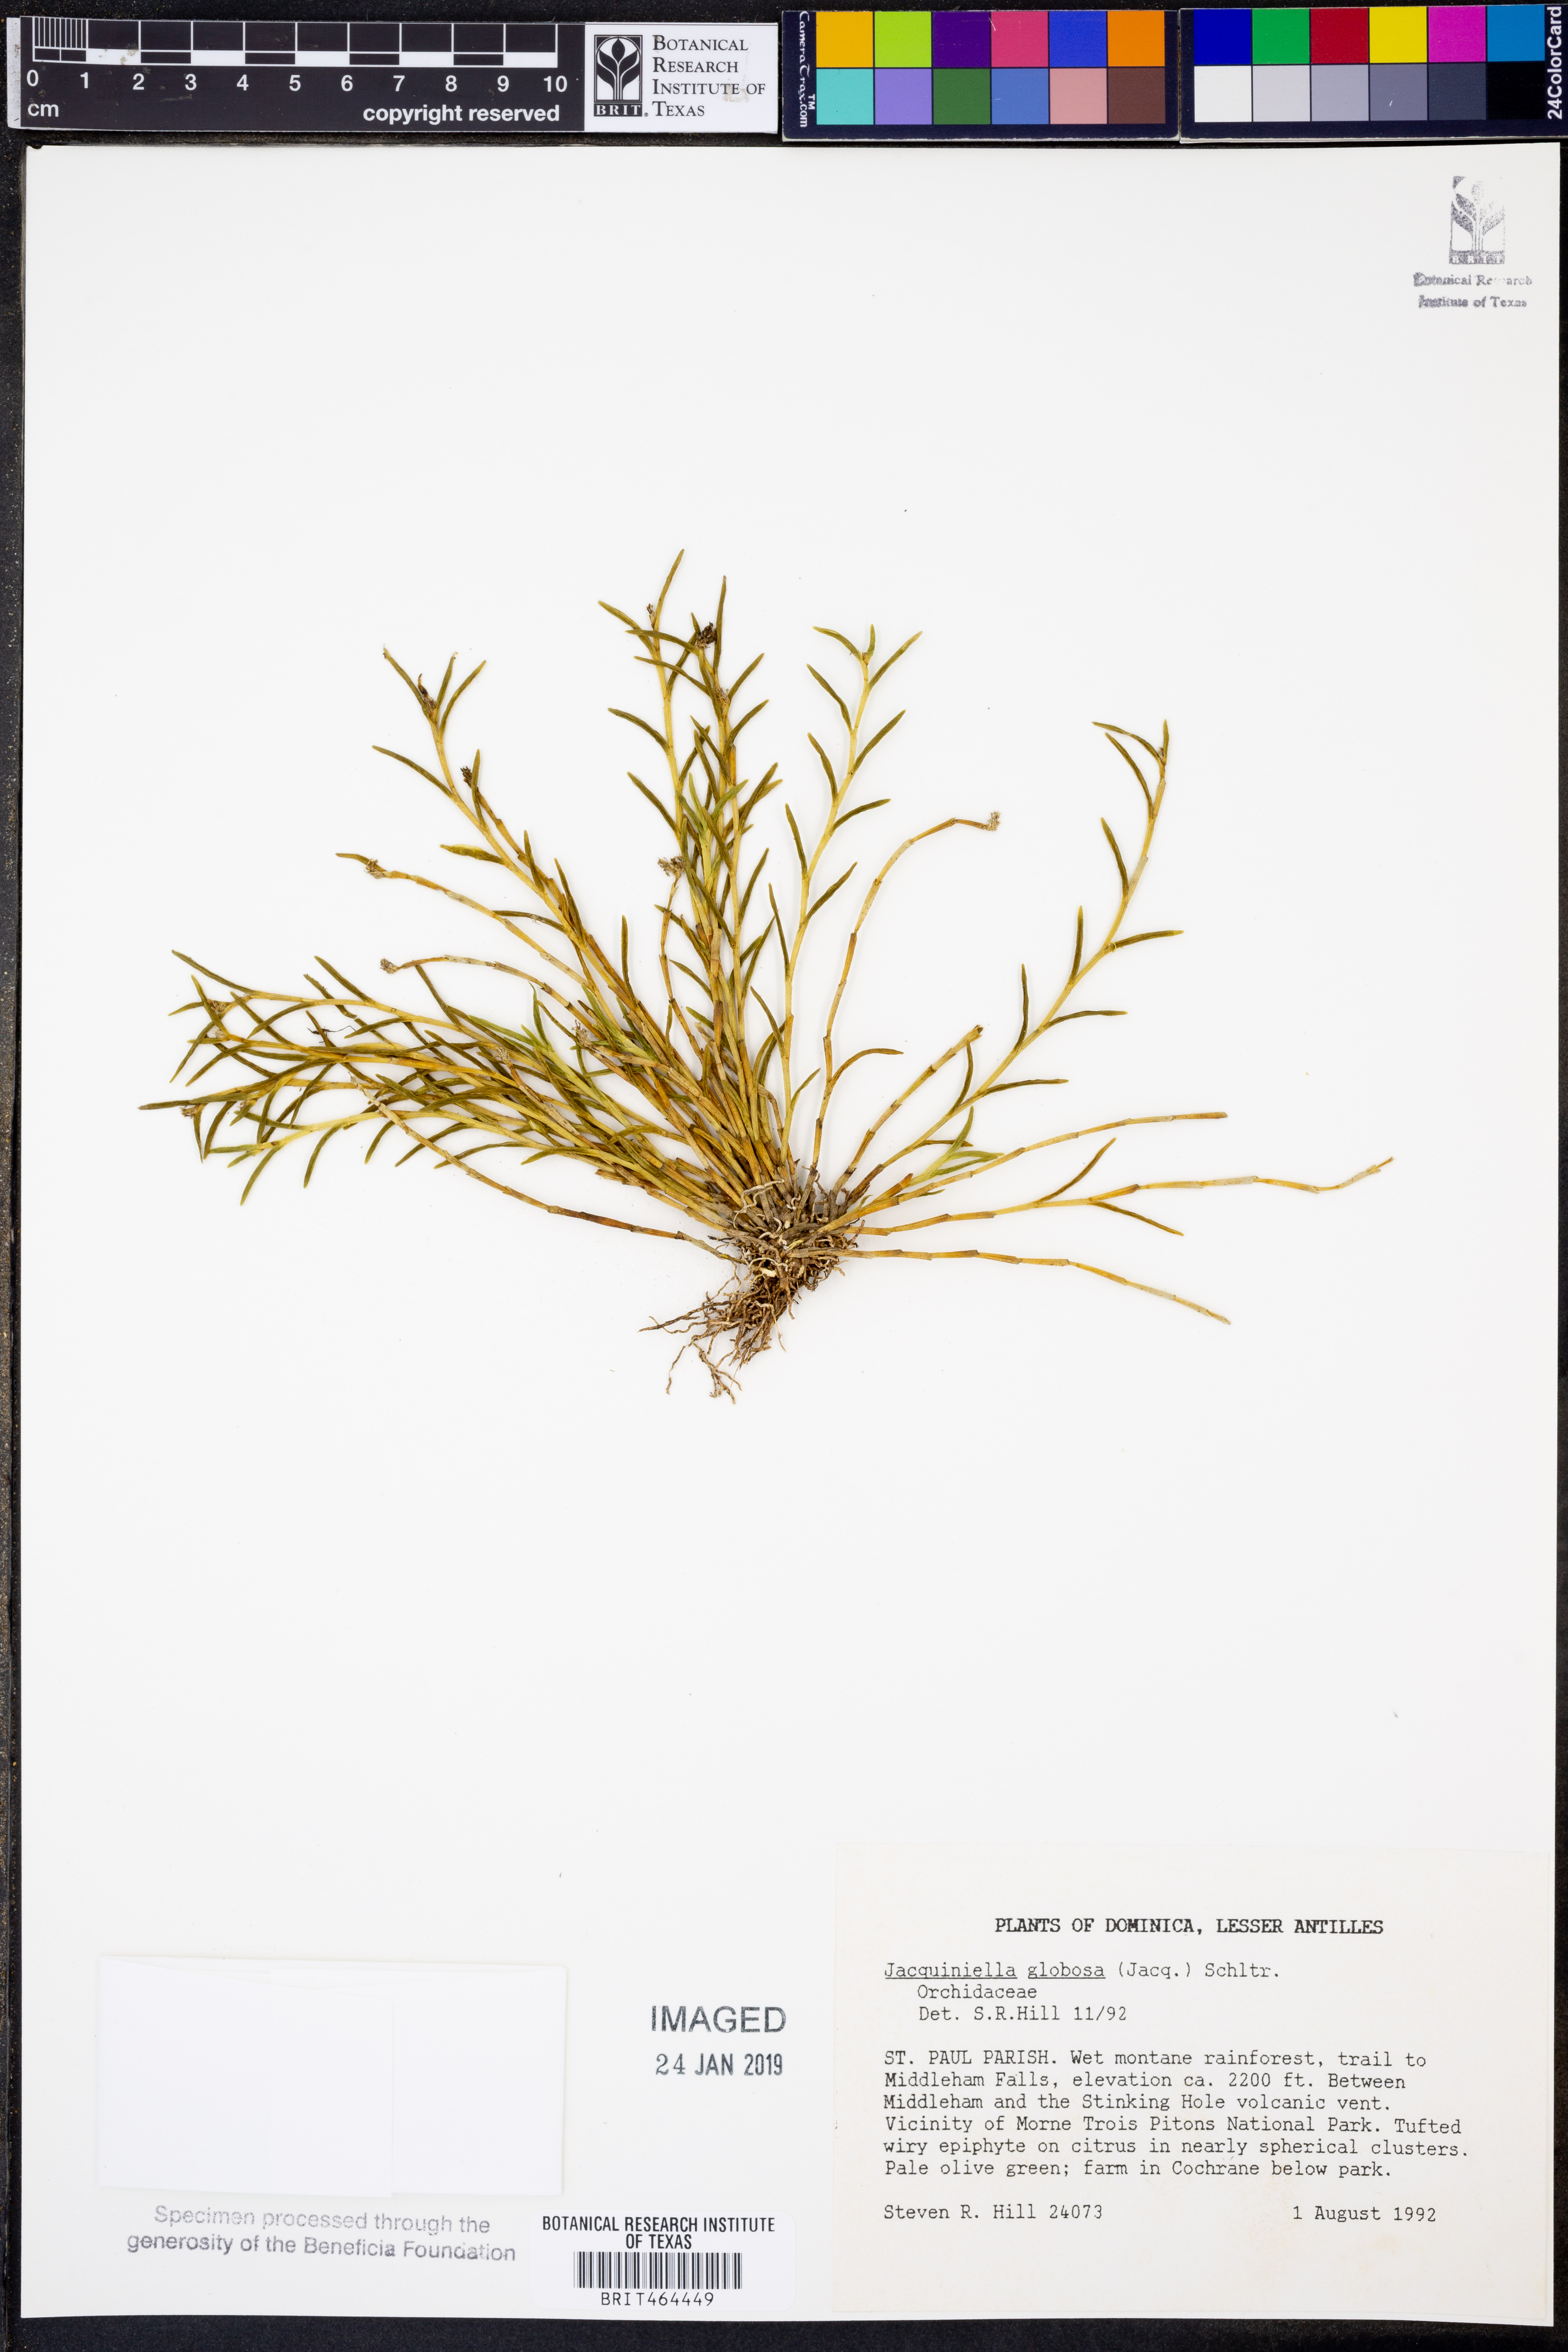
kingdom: Plantae
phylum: Tracheophyta
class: Liliopsida
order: Asparagales
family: Orchidaceae
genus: Jacquiniella
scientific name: Jacquiniella globosa
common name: Redblotch tufted orchid
